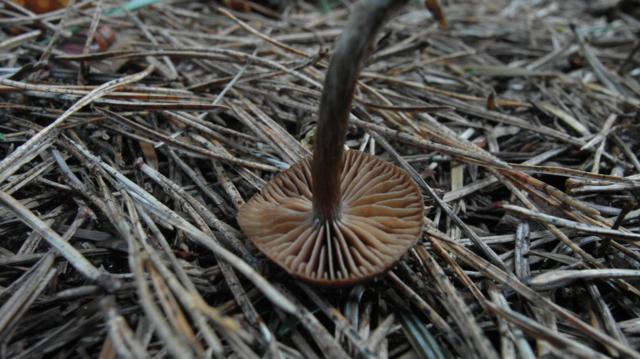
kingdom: Fungi
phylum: Basidiomycota
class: Agaricomycetes
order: Agaricales
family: Cortinariaceae
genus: Cortinarius
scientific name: Cortinarius
